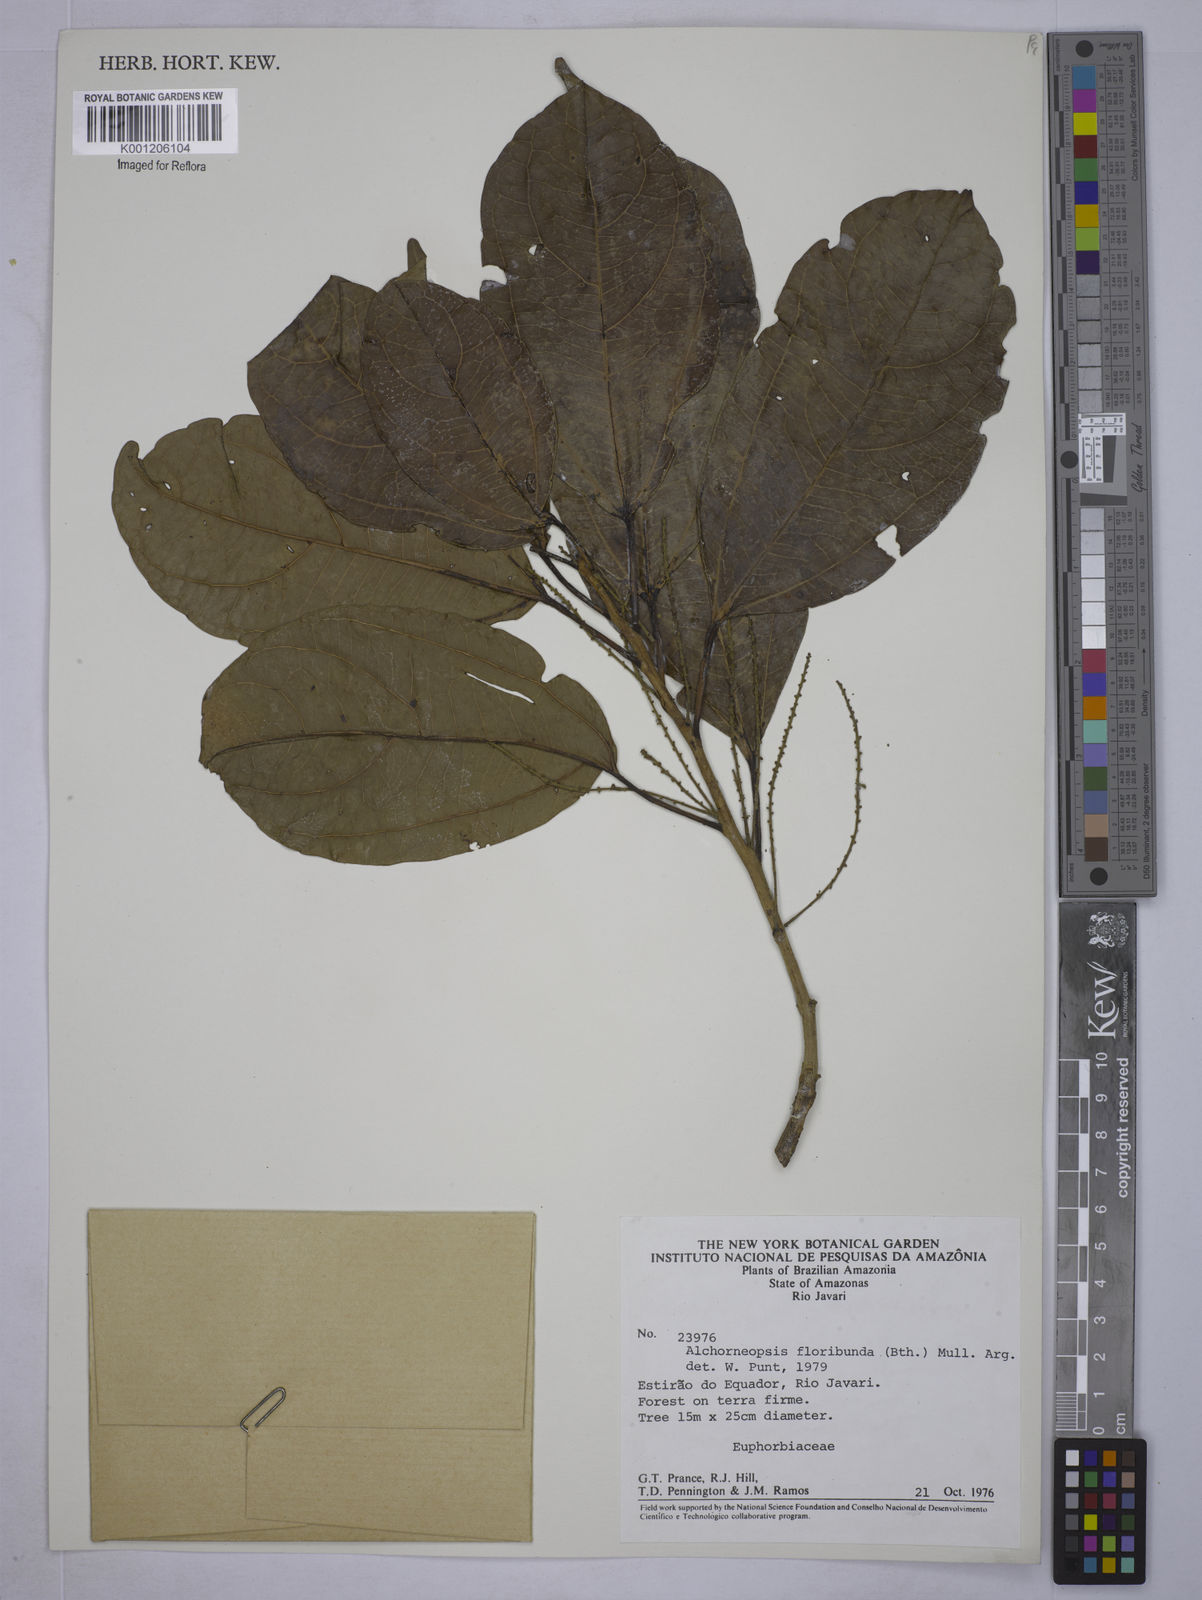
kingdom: Plantae
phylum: Tracheophyta
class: Magnoliopsida
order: Malpighiales
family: Euphorbiaceae
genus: Alchorneopsis
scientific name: Alchorneopsis
